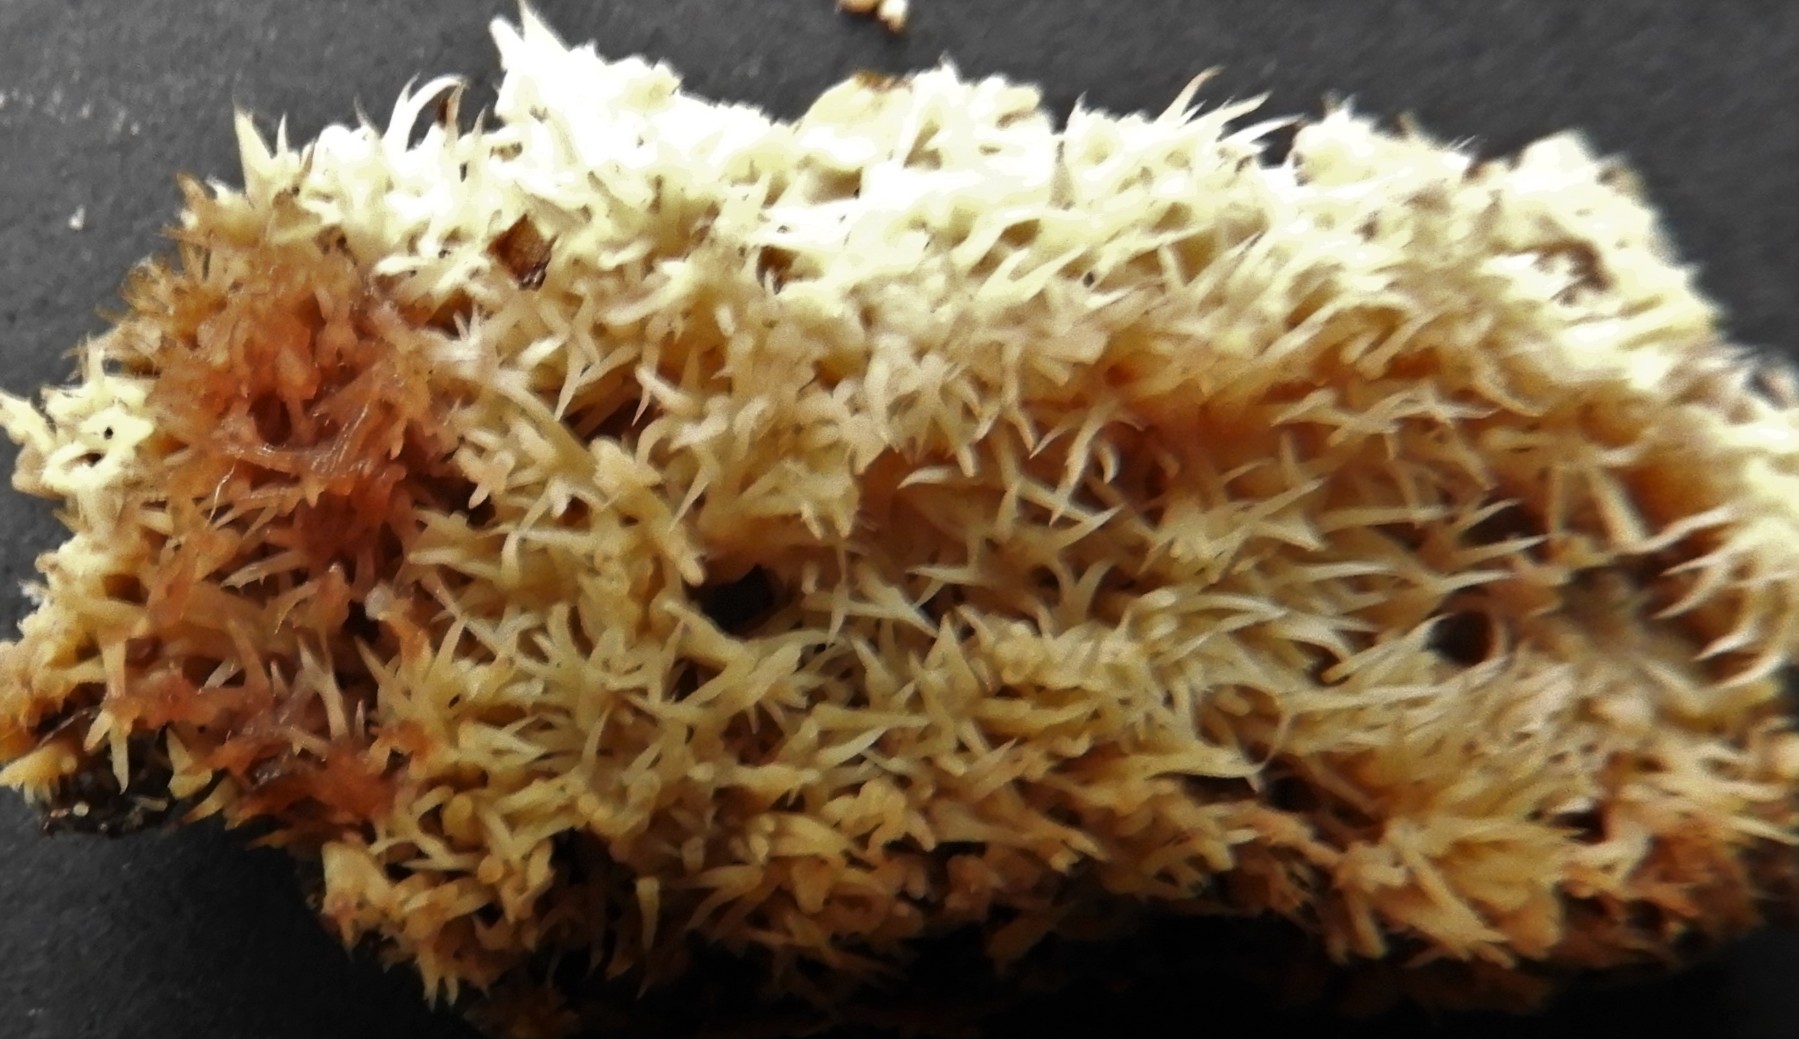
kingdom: Fungi
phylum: Basidiomycota
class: Agaricomycetes
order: Polyporales
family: Meruliaceae
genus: Mycoacia
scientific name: Mycoacia uda
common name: citrongul vokspig
